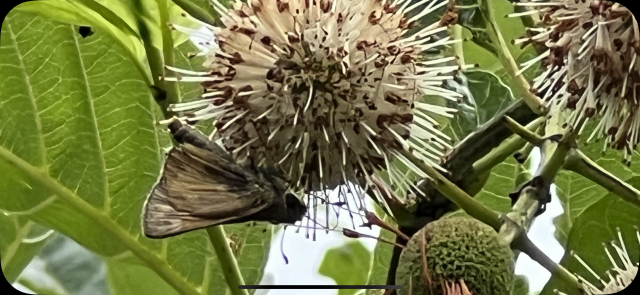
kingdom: Animalia
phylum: Arthropoda
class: Insecta
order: Lepidoptera
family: Hesperiidae
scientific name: Hesperiidae
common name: Skippers
